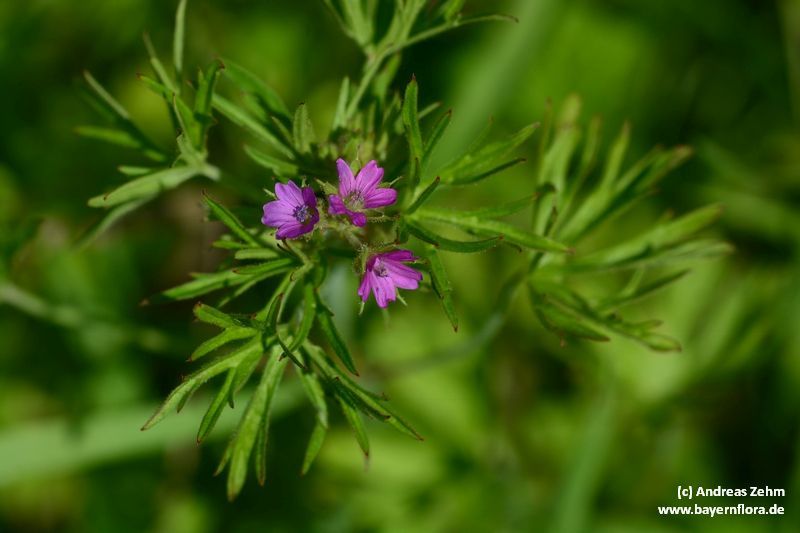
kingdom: Plantae
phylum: Tracheophyta
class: Magnoliopsida
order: Geraniales
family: Geraniaceae
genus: Geranium
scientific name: Geranium dissectum
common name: Cut-leaved crane's-bill
